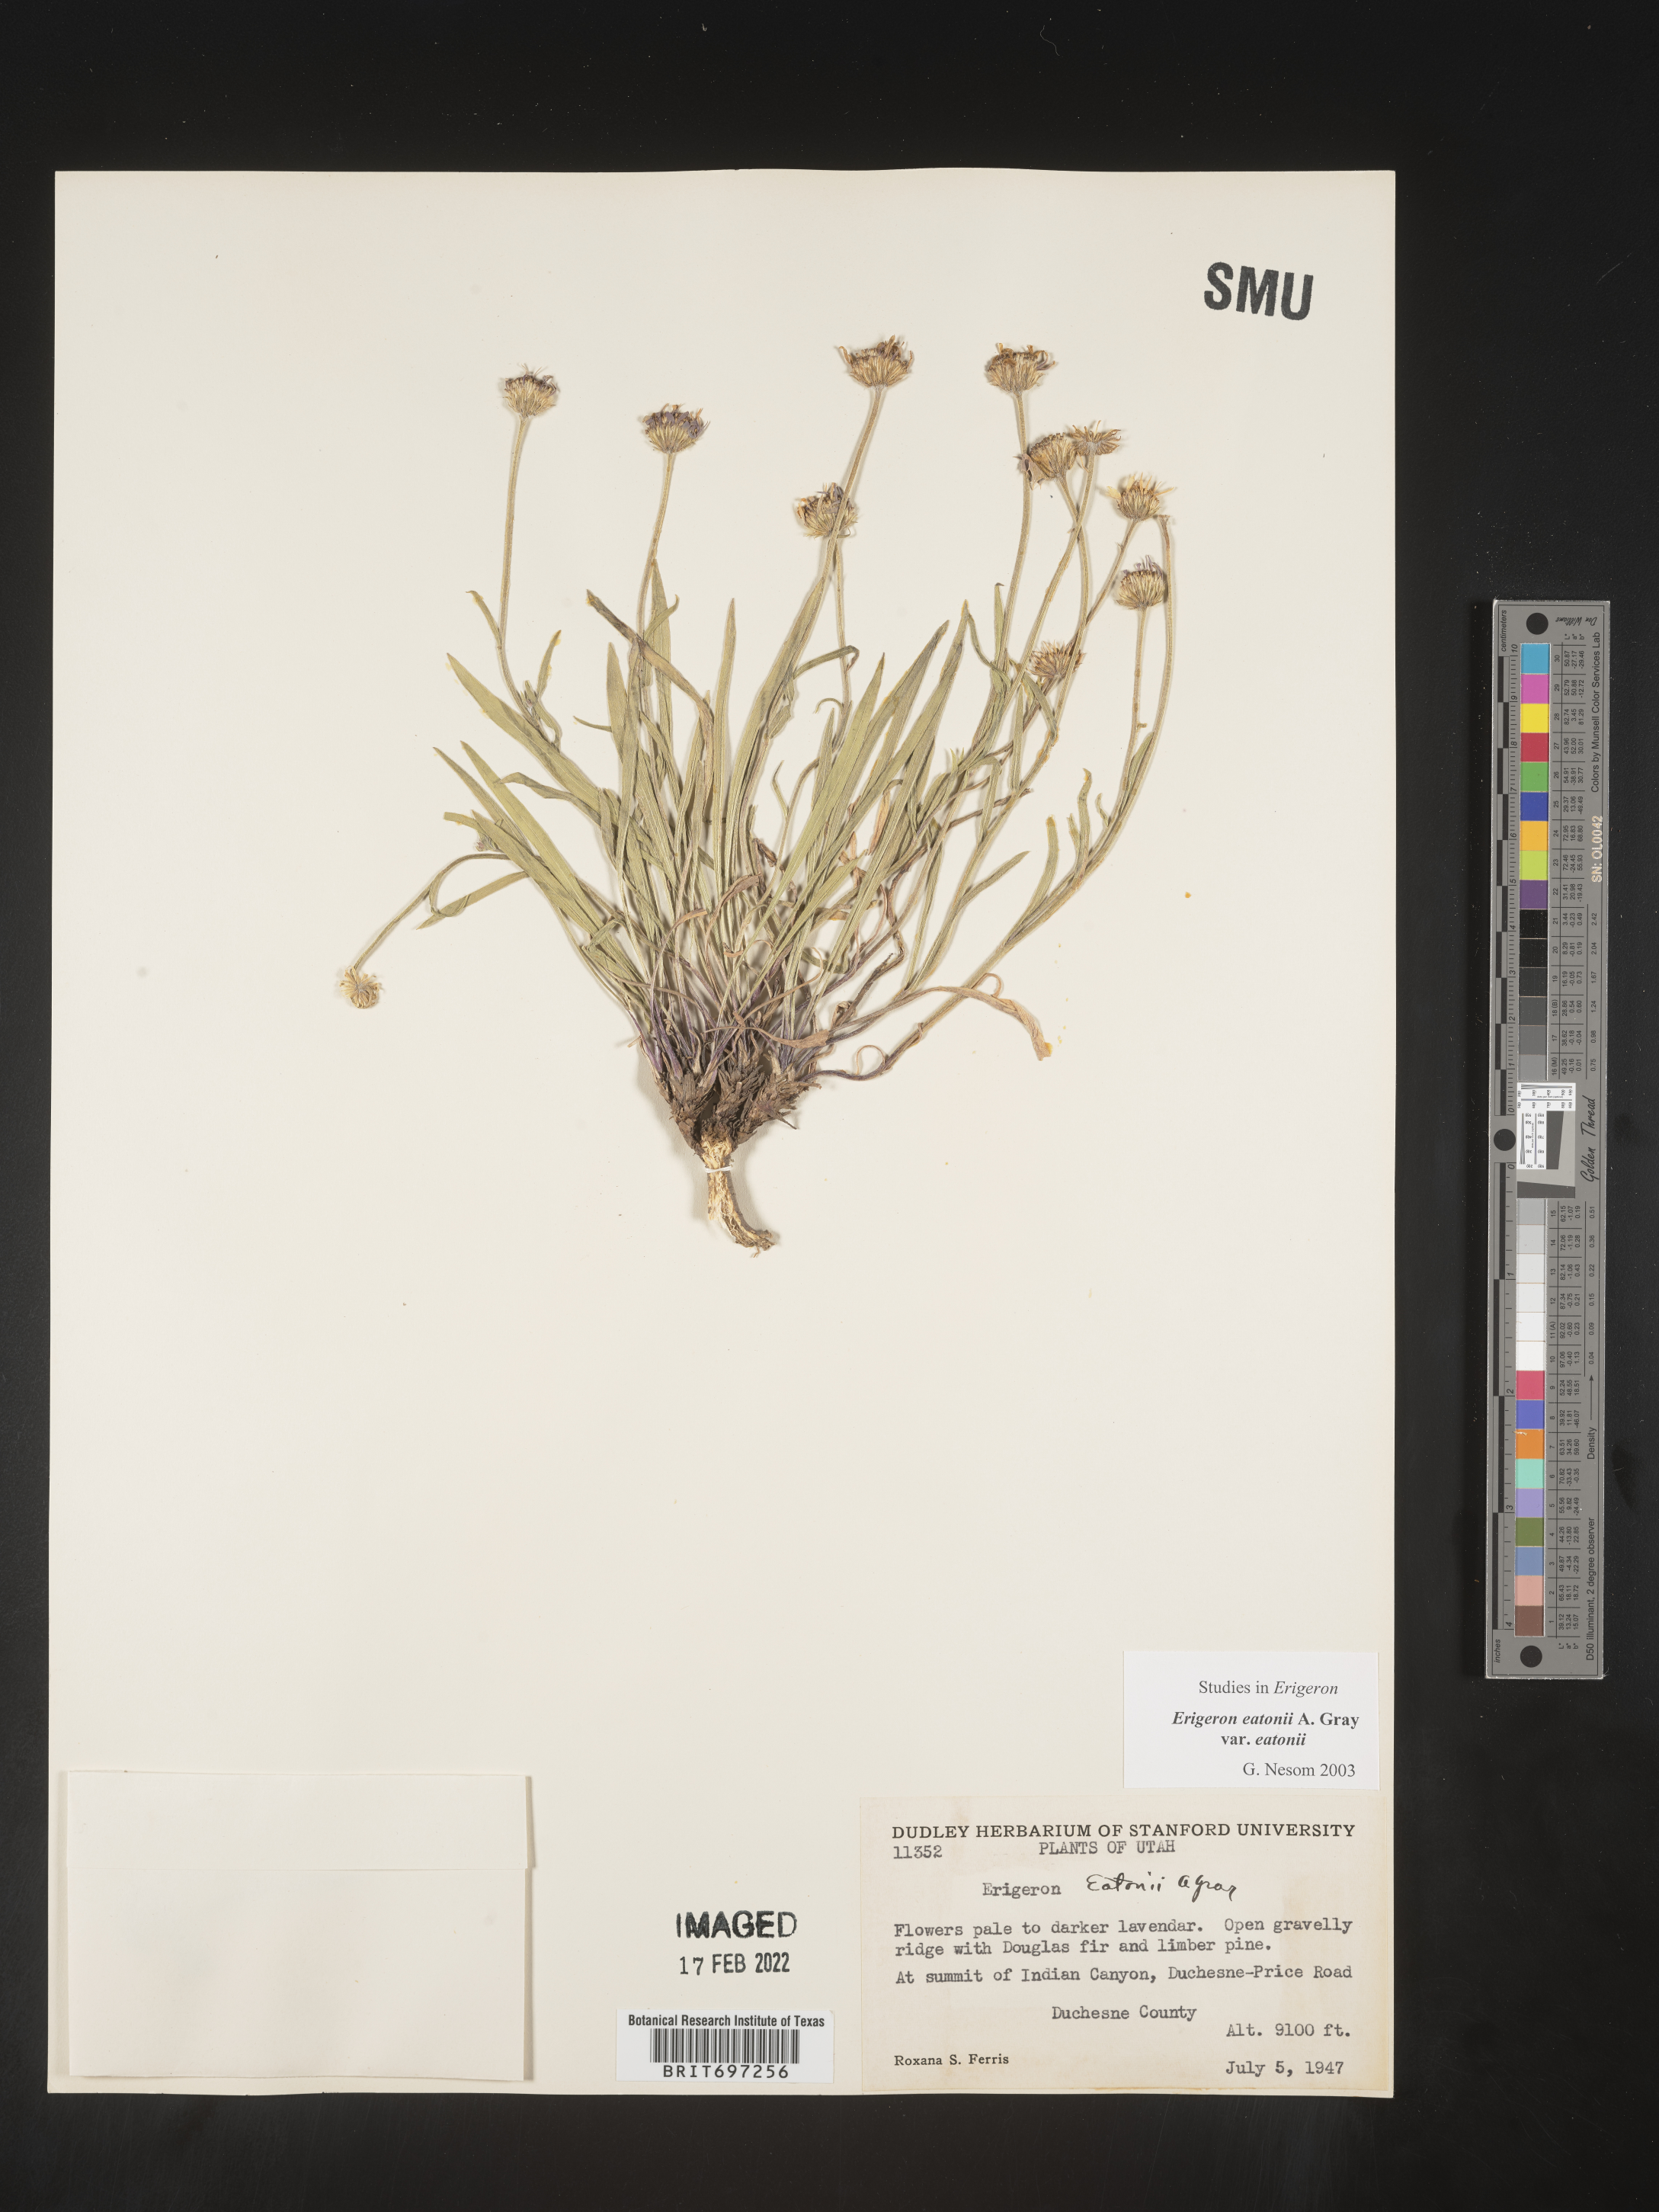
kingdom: Plantae
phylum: Tracheophyta
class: Magnoliopsida
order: Asterales
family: Asteraceae
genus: Erigeron
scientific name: Erigeron eatonii
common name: Eaton's fleabane
